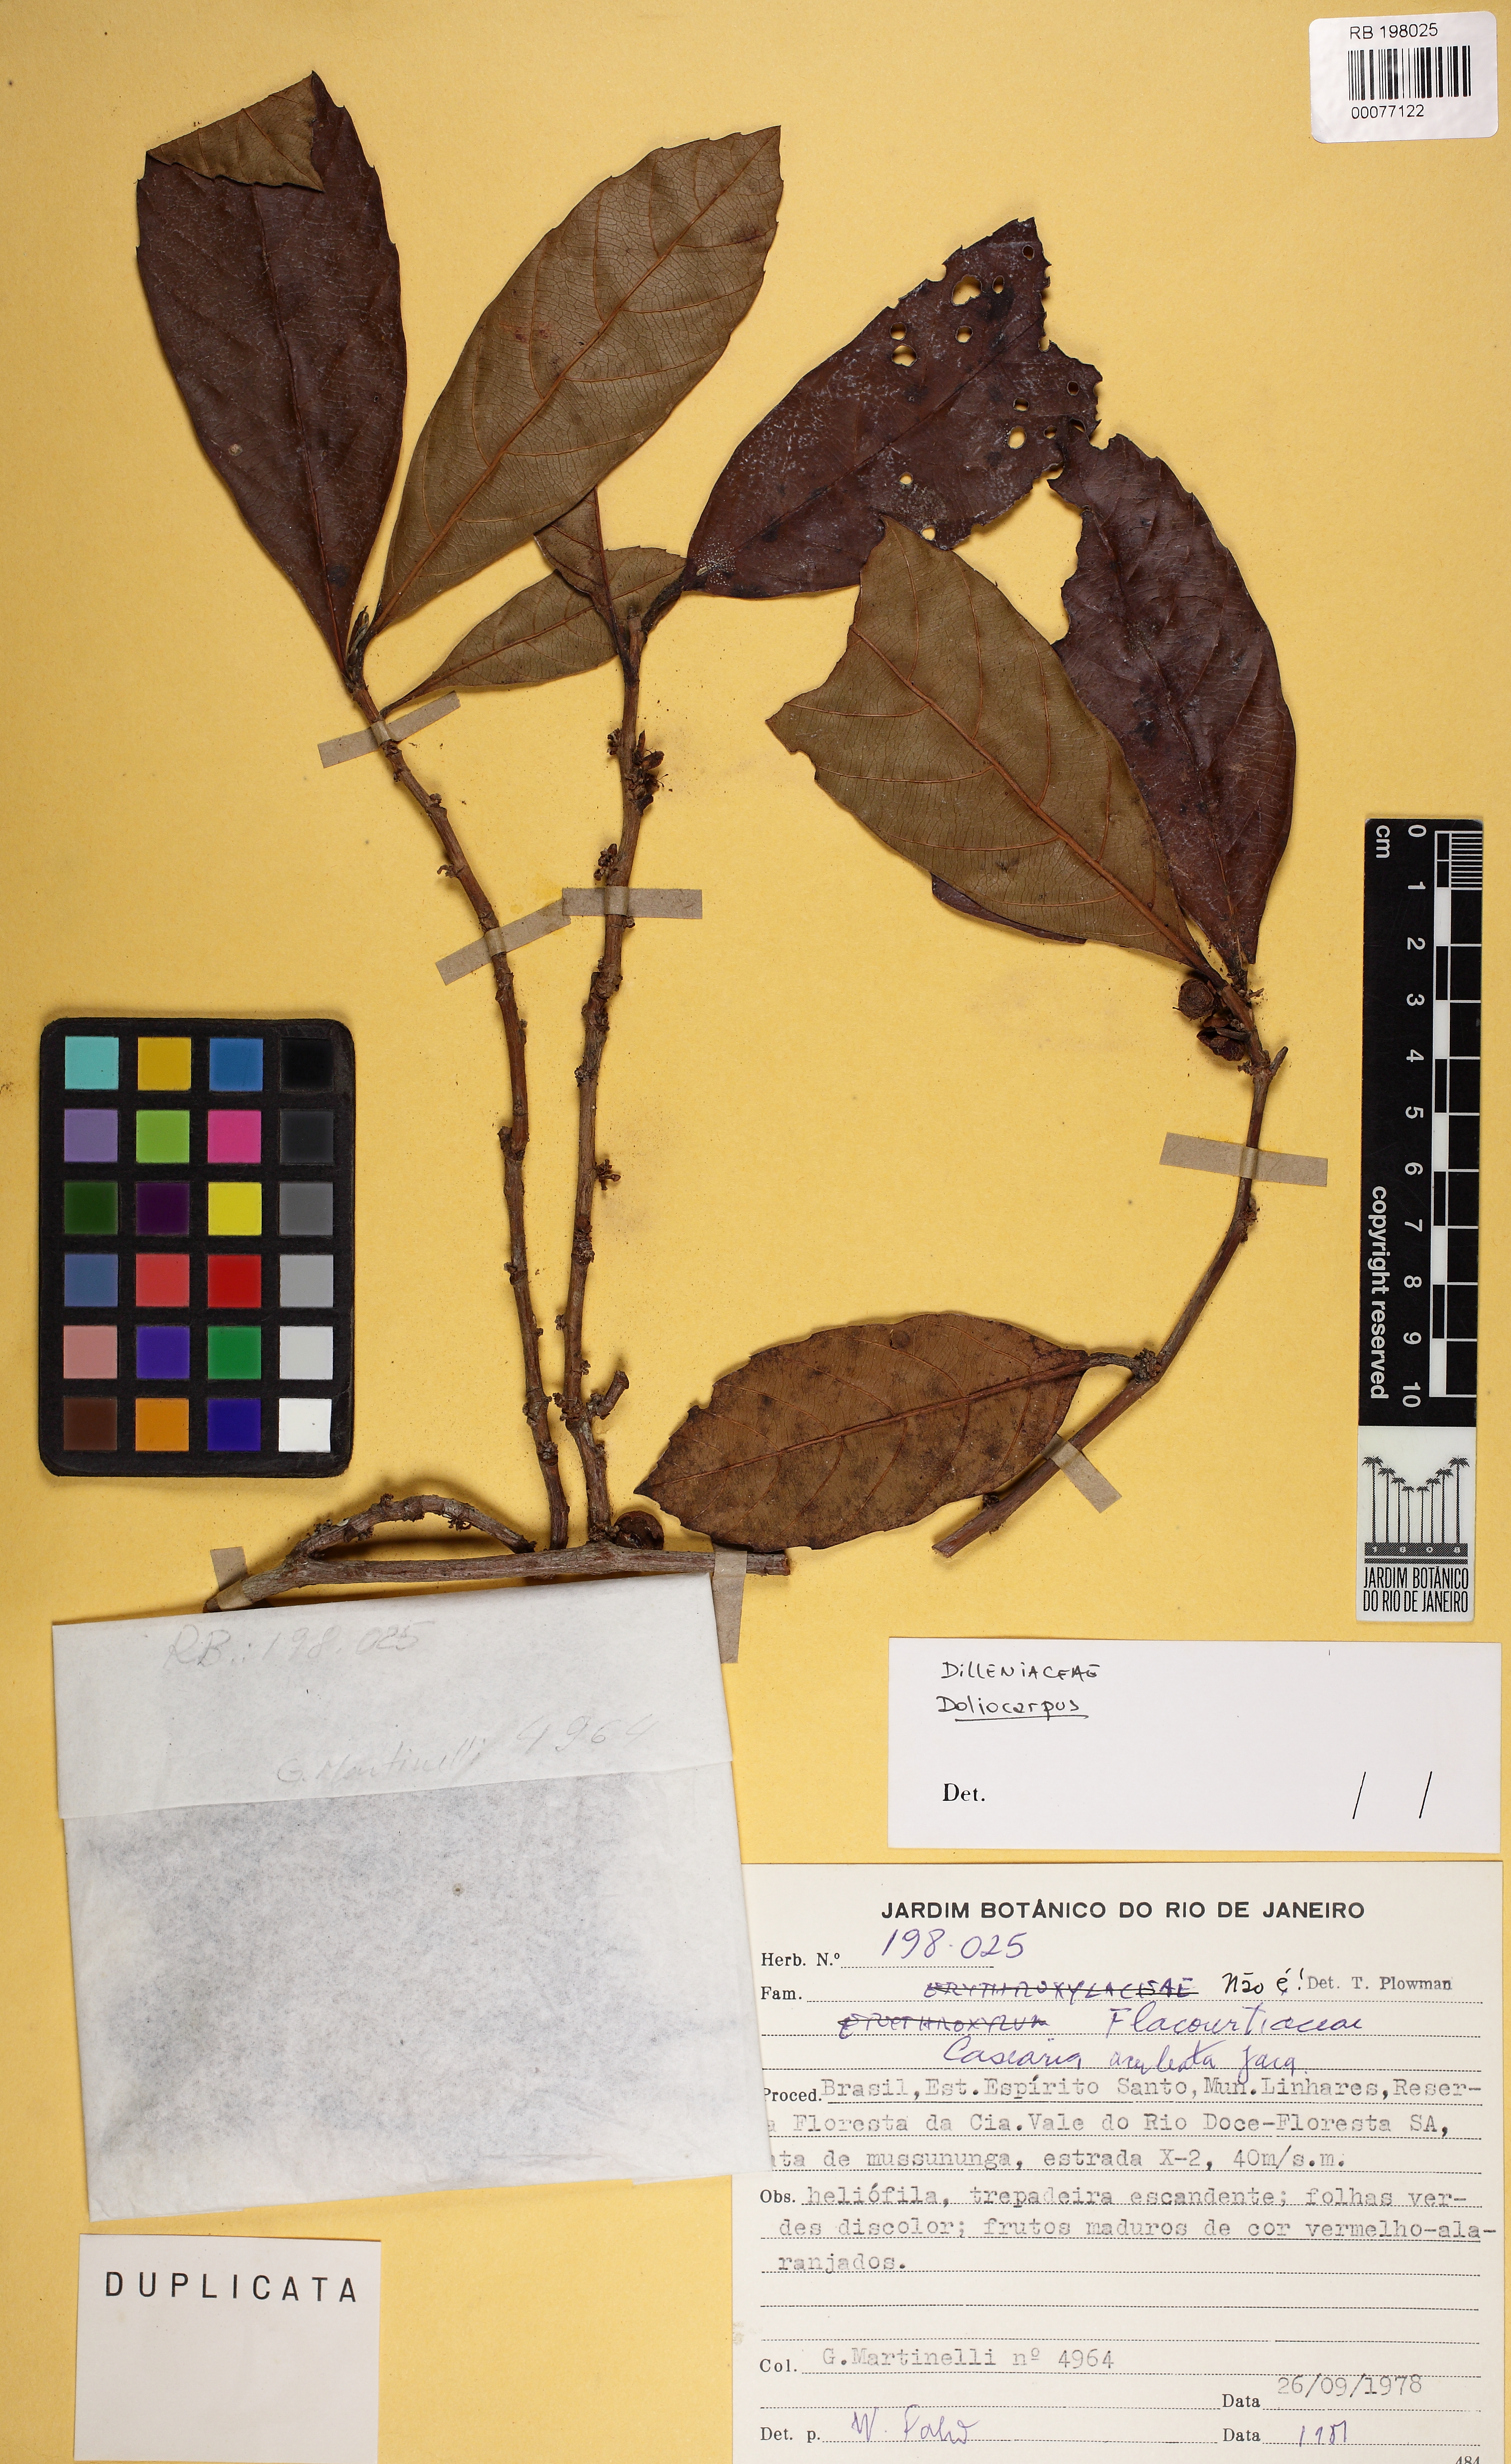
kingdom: Plantae
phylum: Tracheophyta
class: Magnoliopsida
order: Dilleniales
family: Dilleniaceae
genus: Doliocarpus
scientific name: Doliocarpus validus
